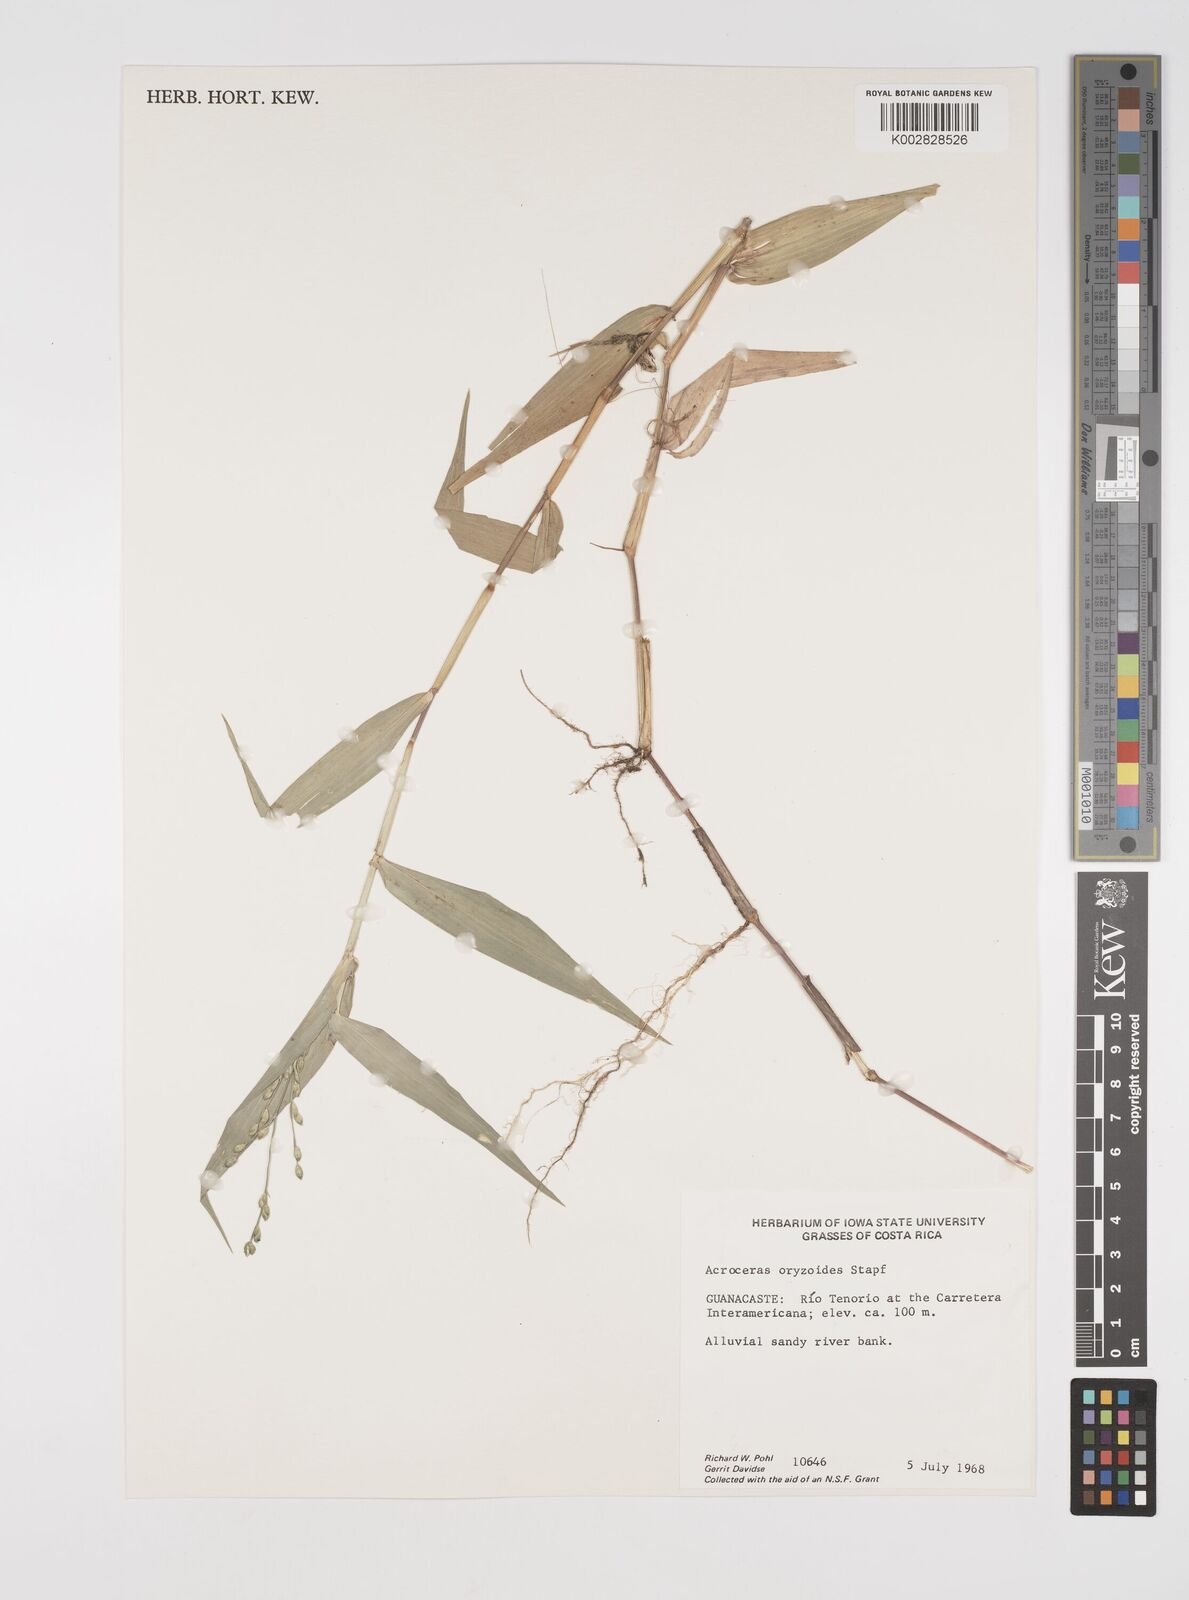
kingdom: Plantae
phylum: Tracheophyta
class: Liliopsida
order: Poales
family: Poaceae
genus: Acroceras
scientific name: Acroceras zizanioides
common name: Oat grass
